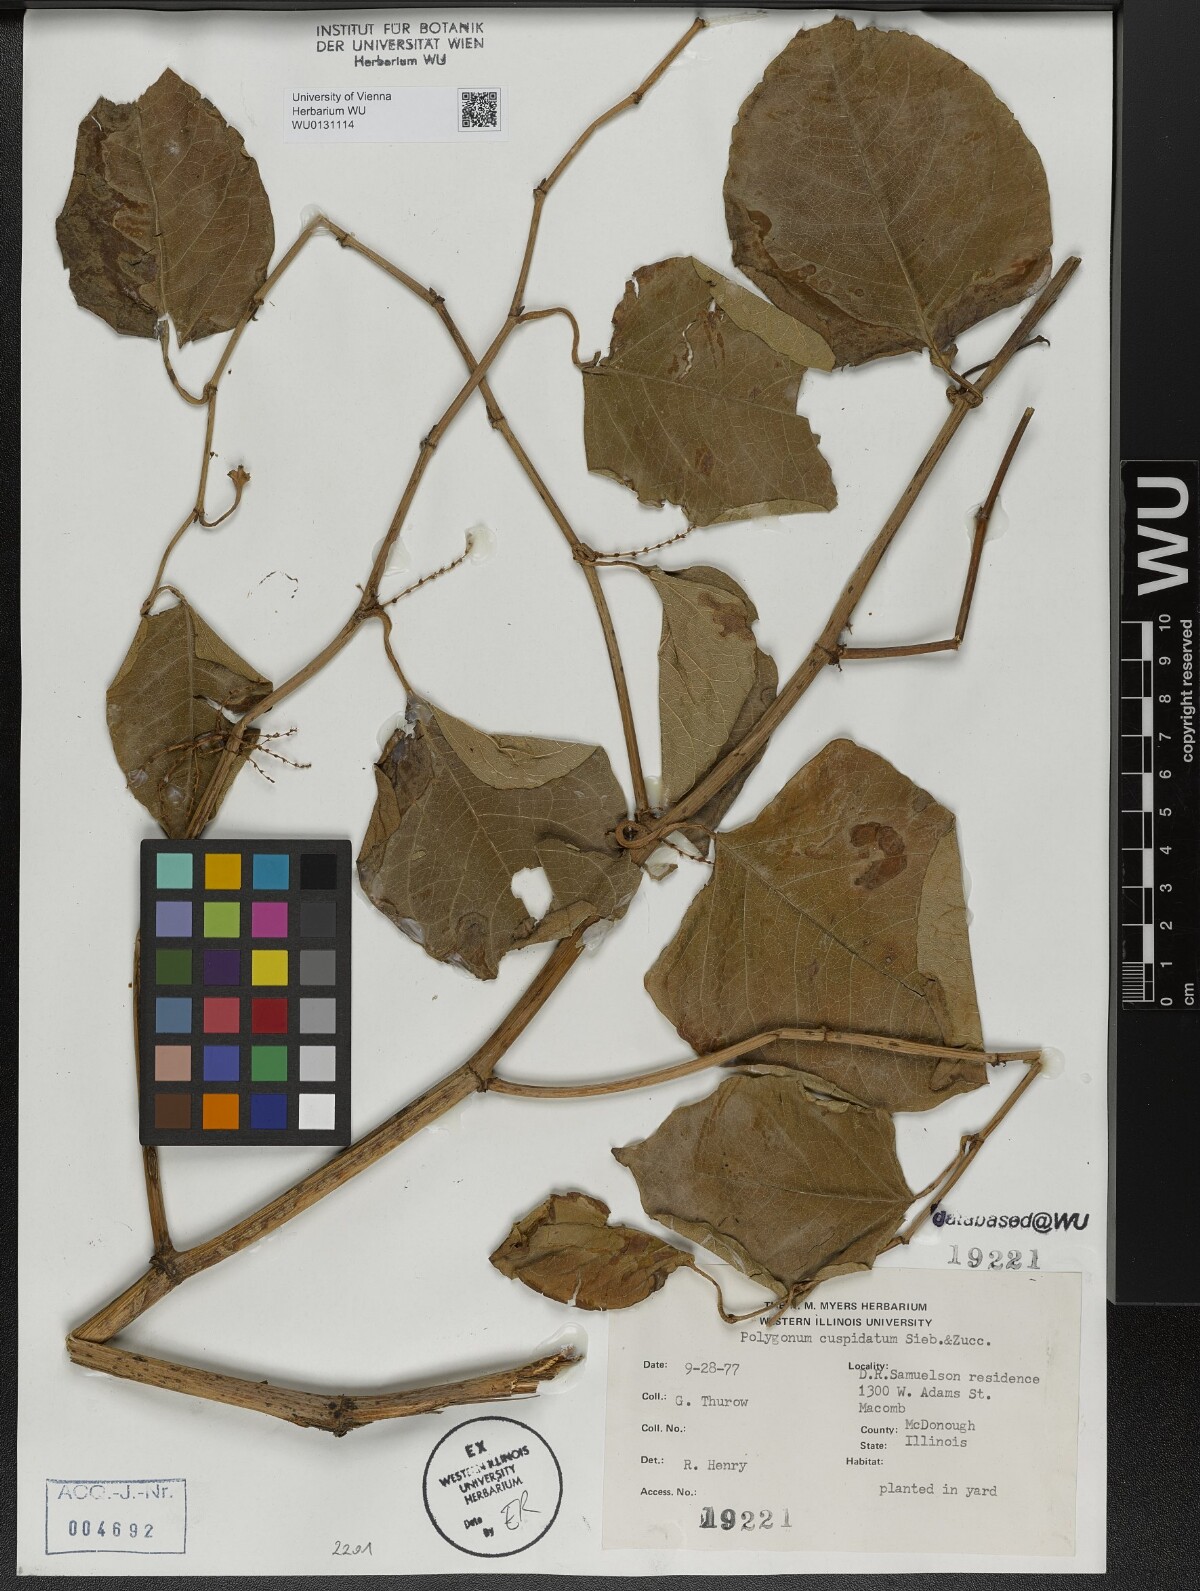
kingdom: Plantae
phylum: Tracheophyta
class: Magnoliopsida
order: Caryophyllales
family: Polygonaceae
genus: Reynoutria
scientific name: Reynoutria japonica
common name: Japanese knotweed
